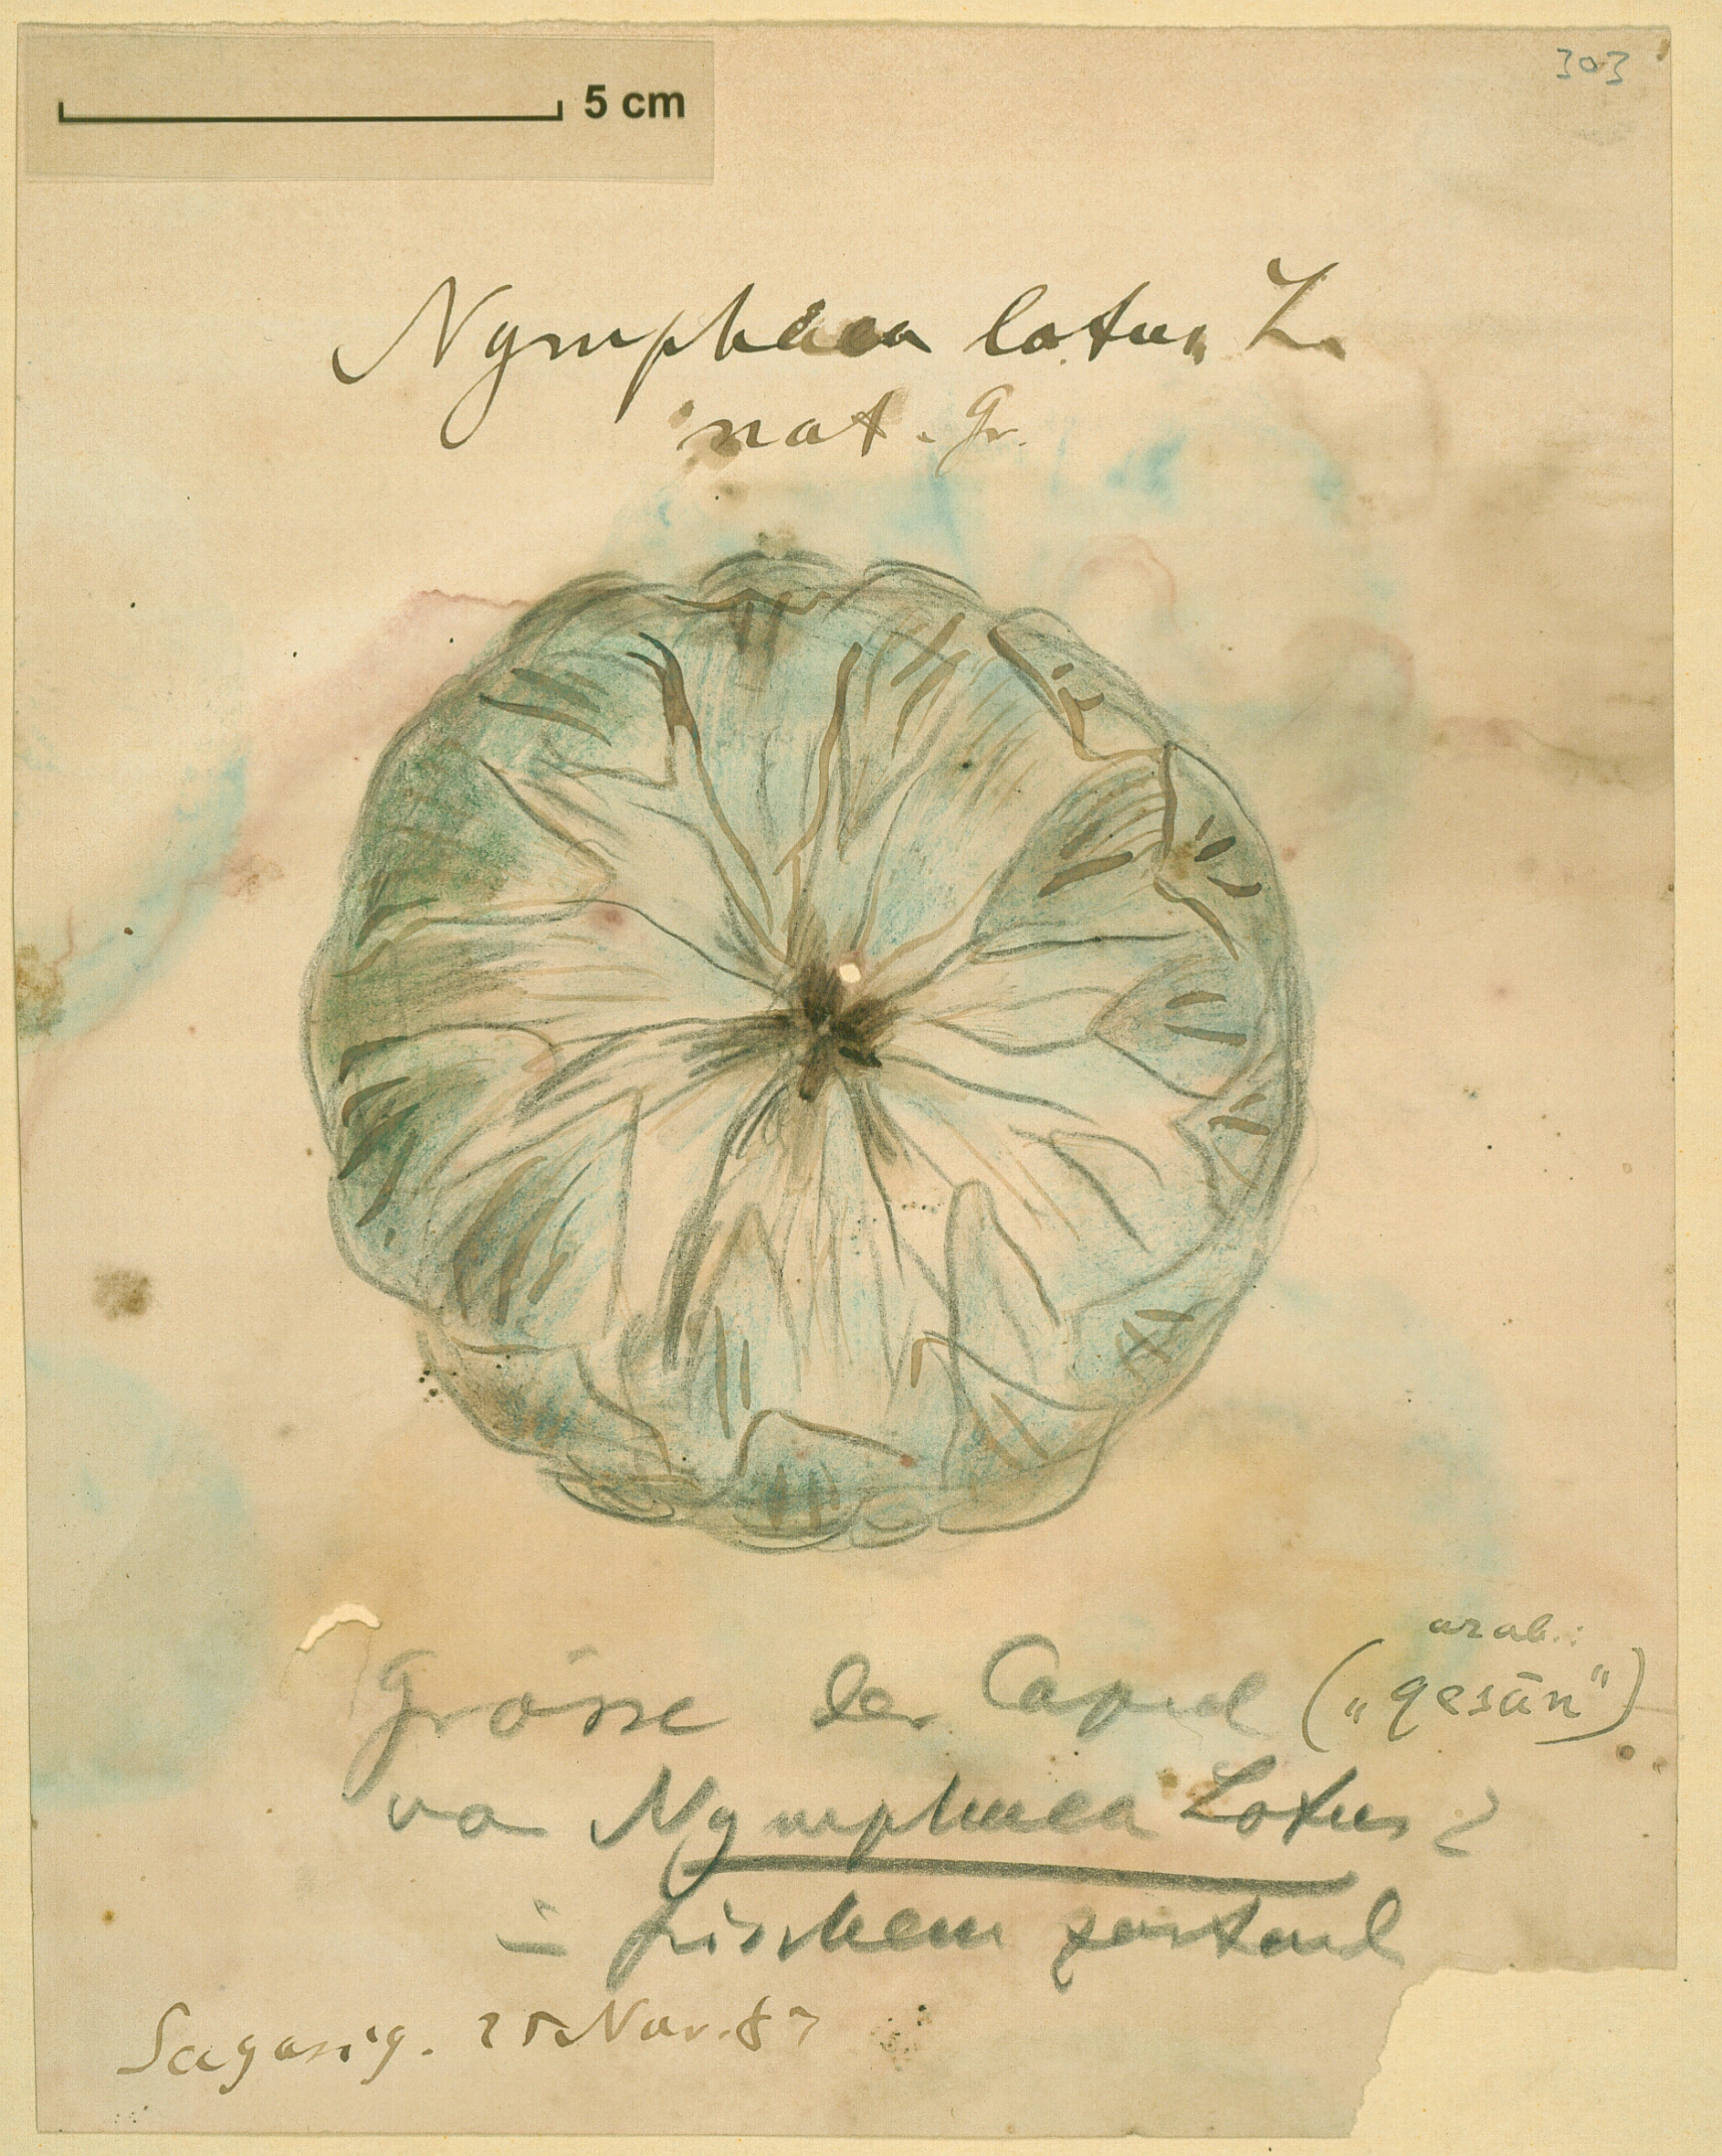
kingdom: Plantae
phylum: Tracheophyta
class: Magnoliopsida
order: Nymphaeales
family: Nymphaeaceae
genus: Nymphaea
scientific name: Nymphaea lotus
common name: White egyptian lotus
